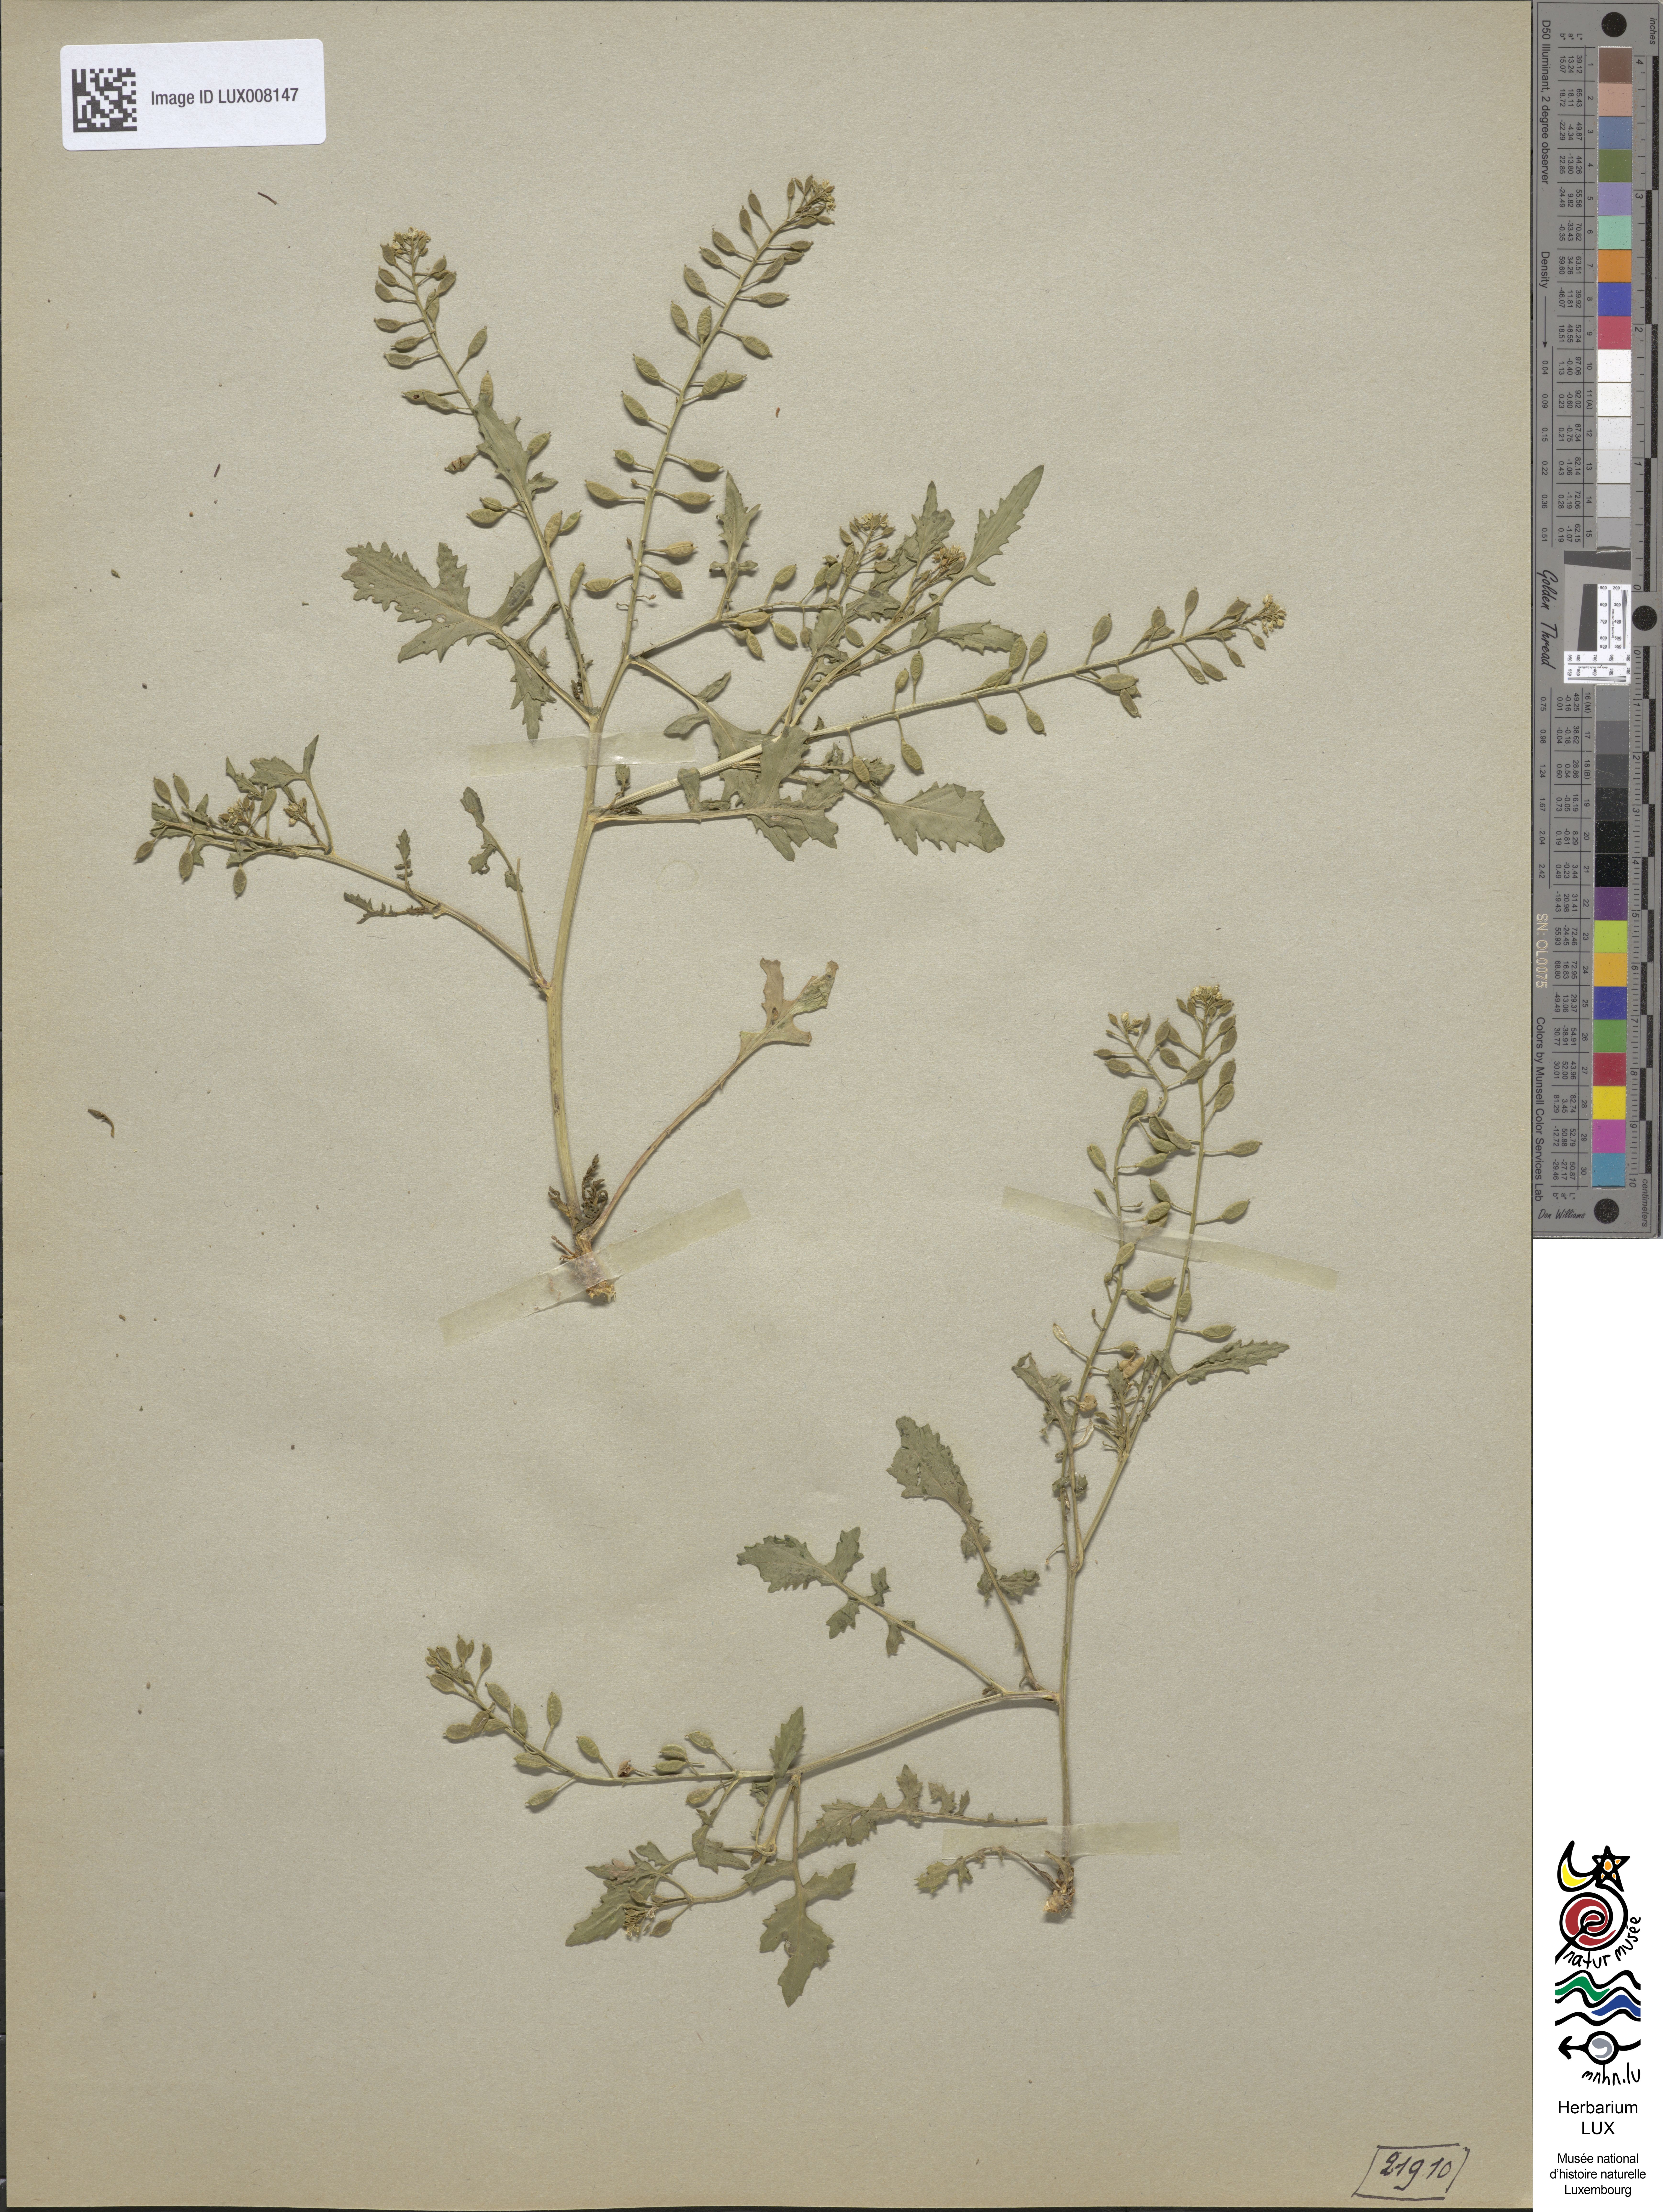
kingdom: Plantae
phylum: Tracheophyta
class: Magnoliopsida
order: Brassicales
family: Brassicaceae
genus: Rorippa
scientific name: Rorippa islandica
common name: Marsh cress
